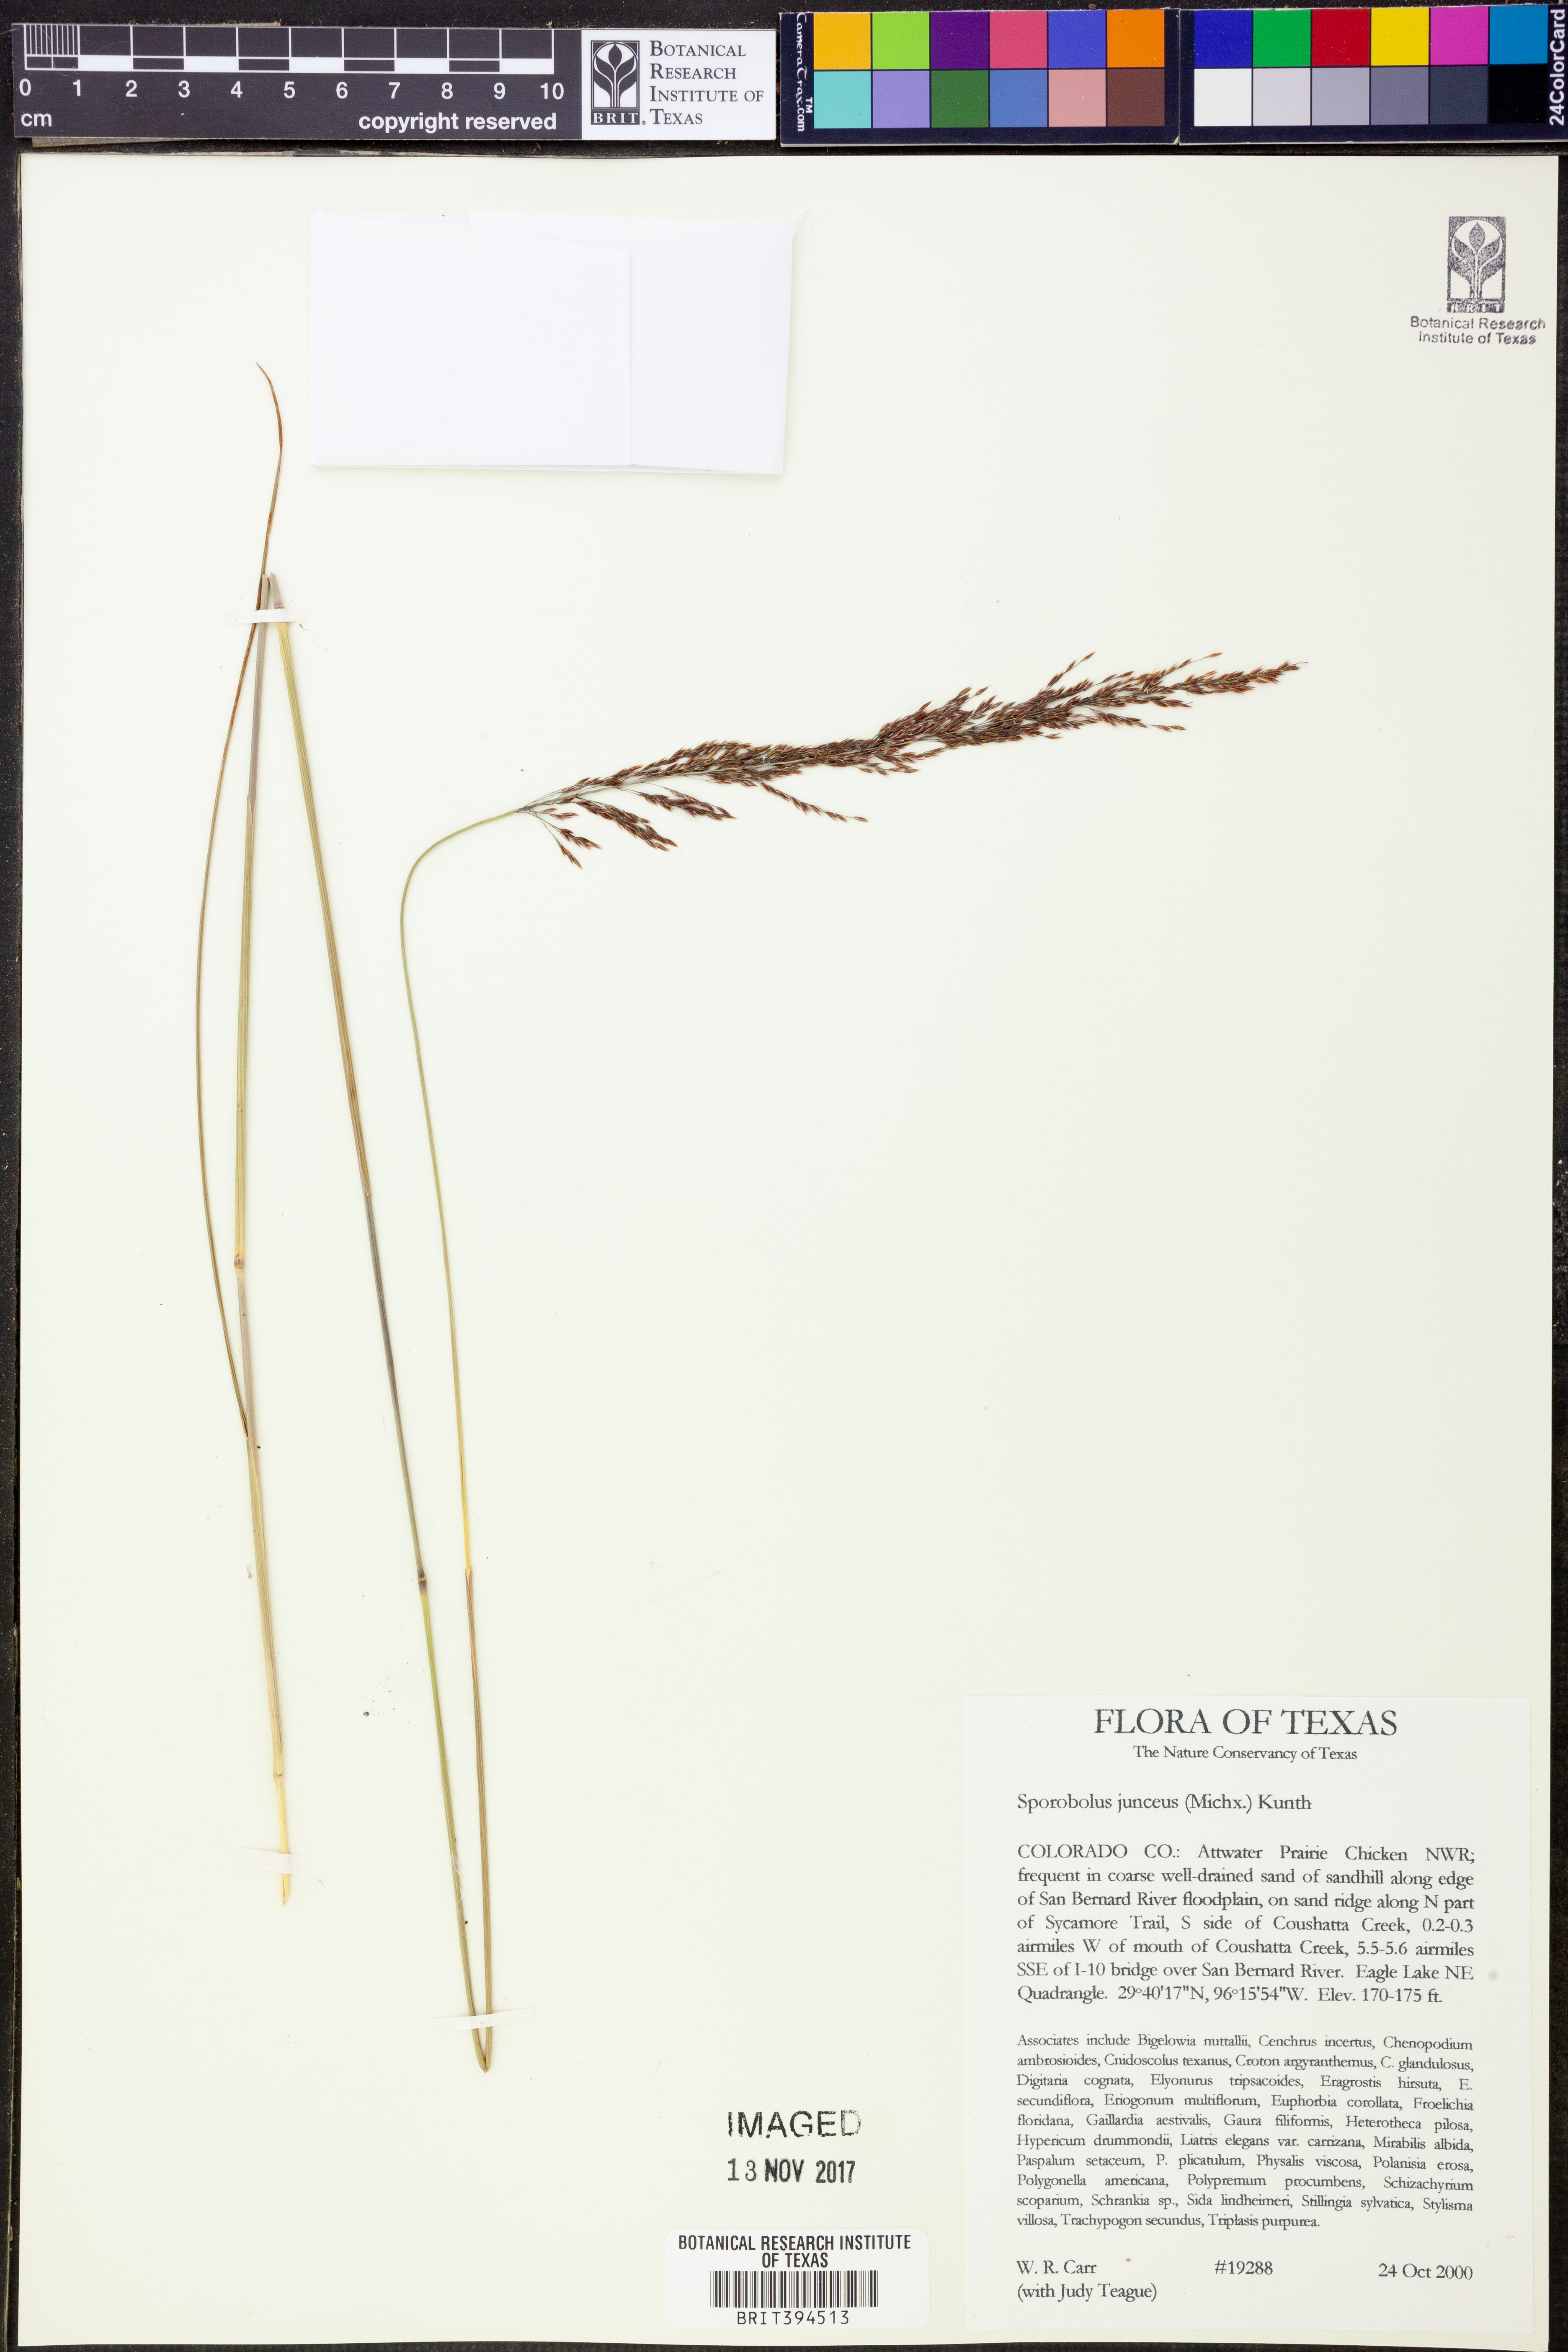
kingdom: Plantae
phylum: Tracheophyta
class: Liliopsida
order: Poales
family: Poaceae
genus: Sporobolus
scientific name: Sporobolus junceus
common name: Lizard grass
